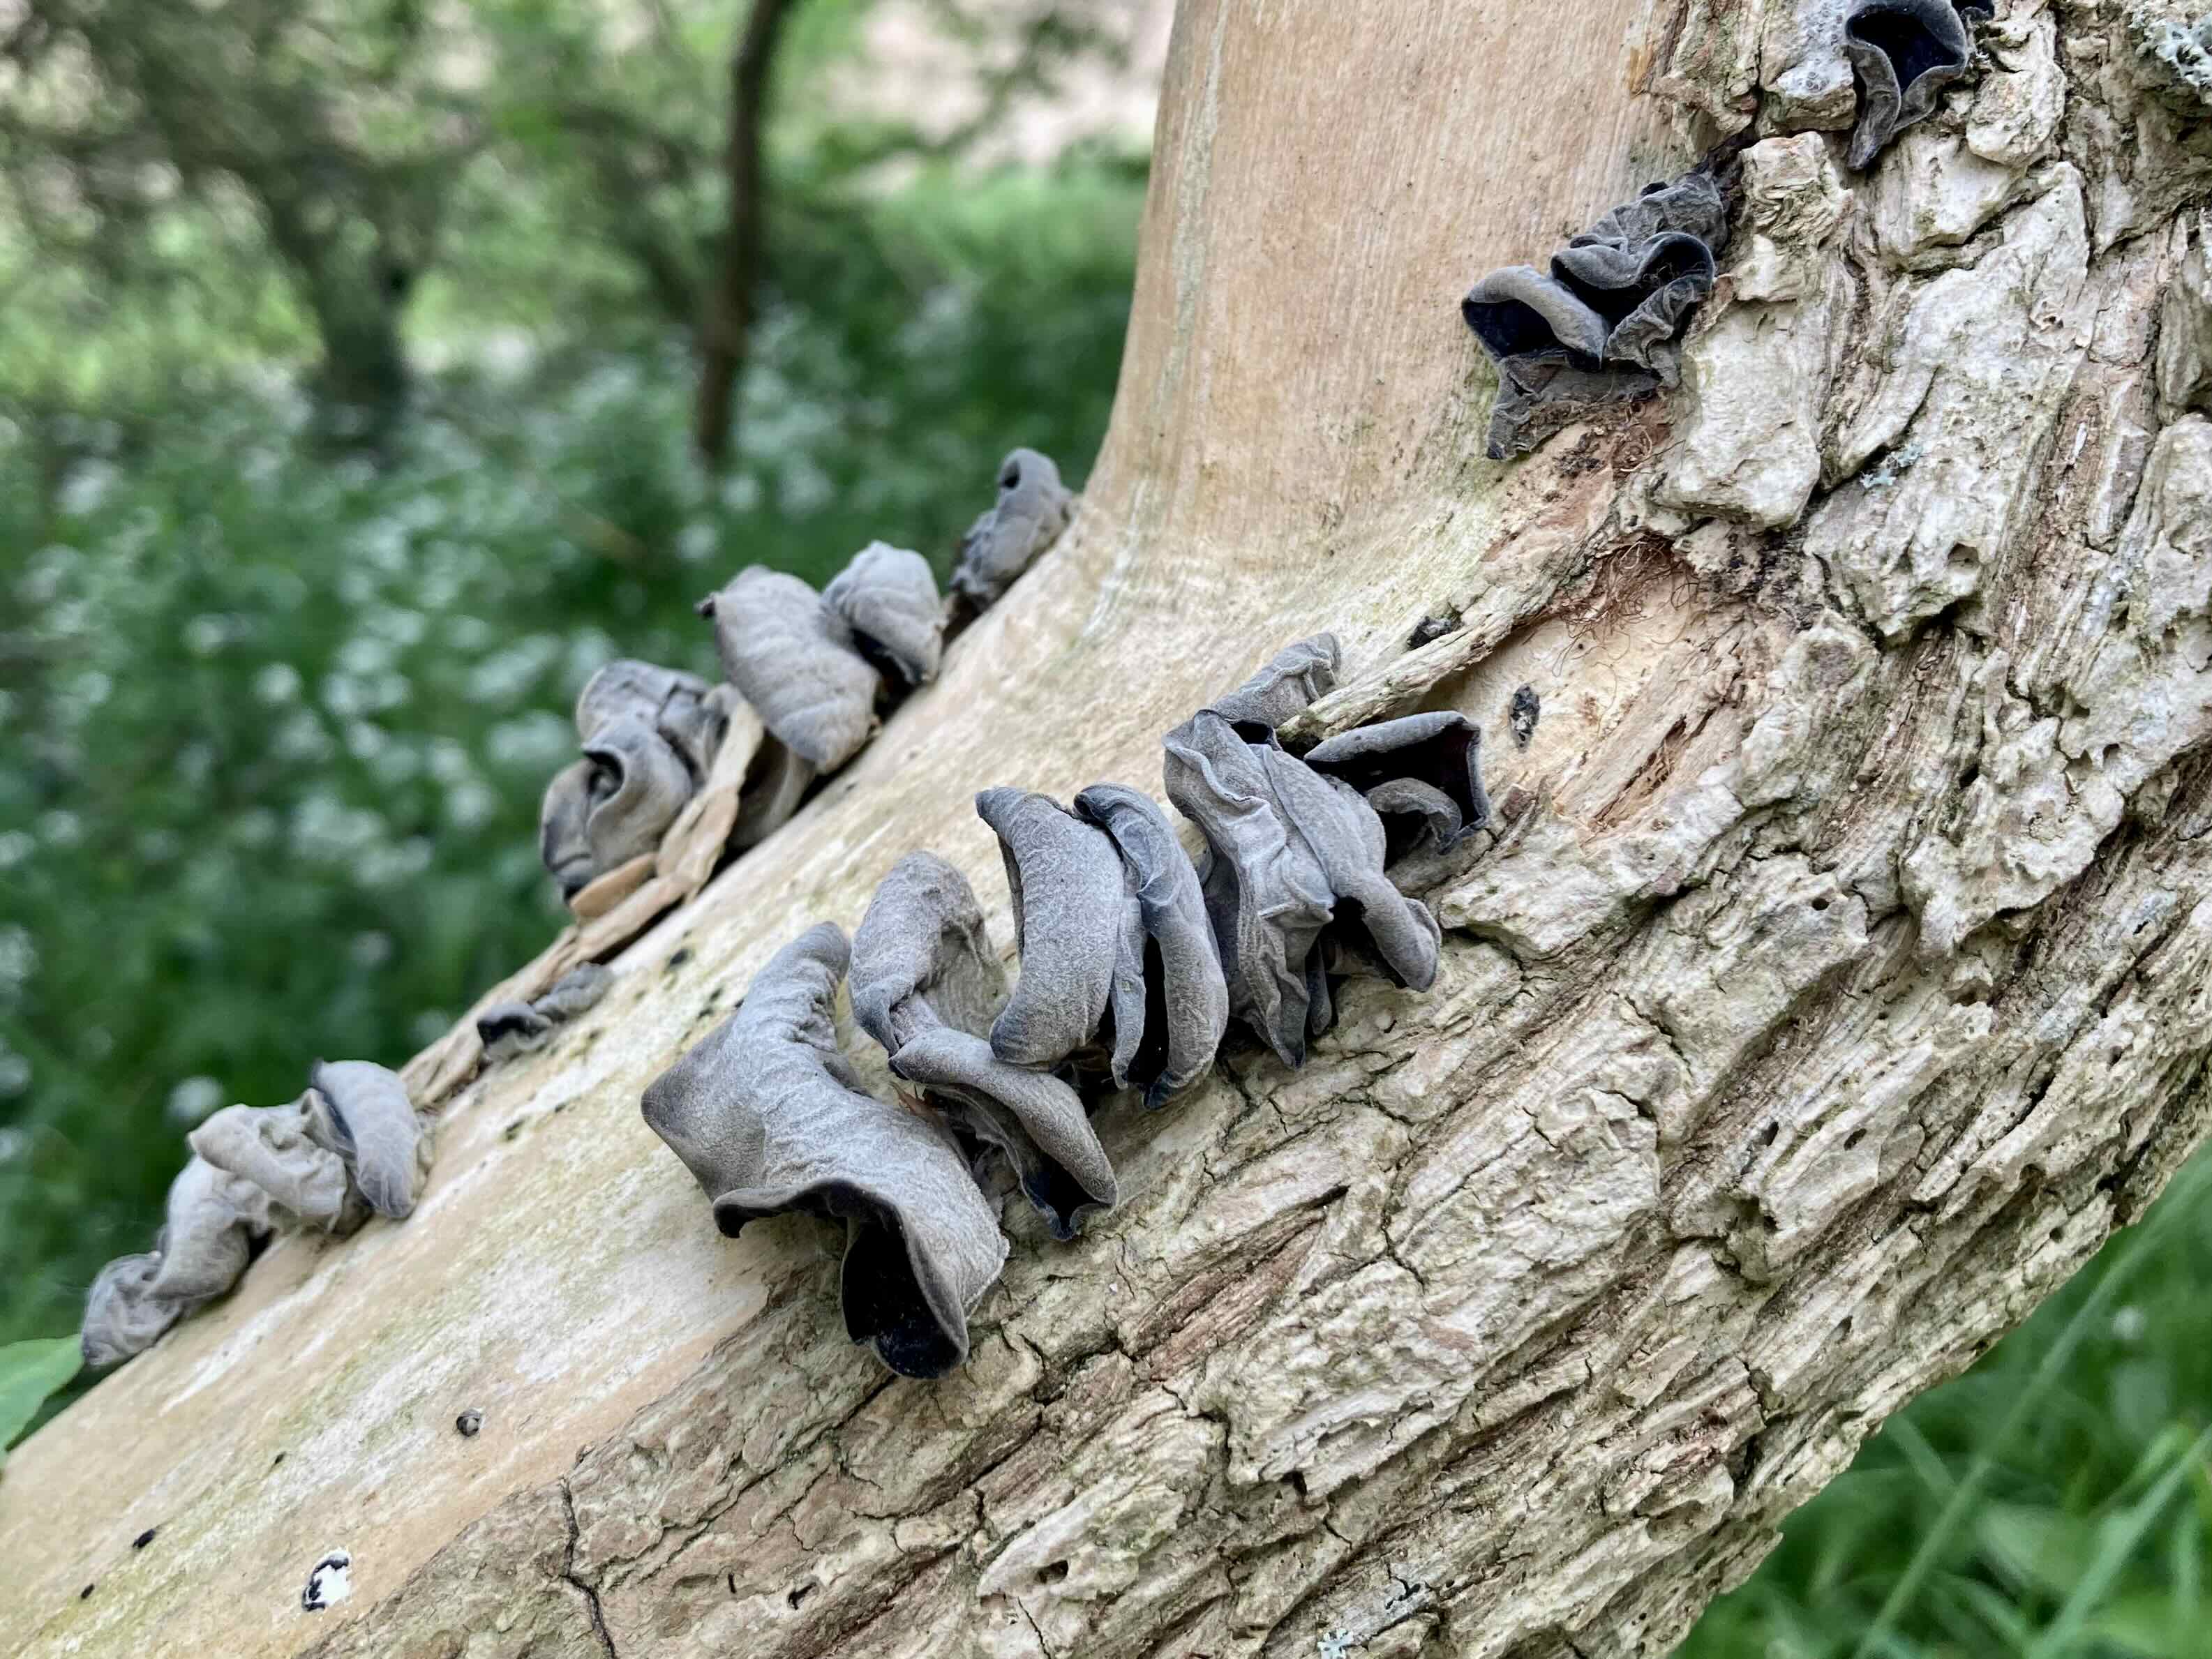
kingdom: Fungi
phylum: Basidiomycota
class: Agaricomycetes
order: Auriculariales
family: Auriculariaceae
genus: Auricularia
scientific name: Auricularia auricula-judae
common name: almindelig judasøre
